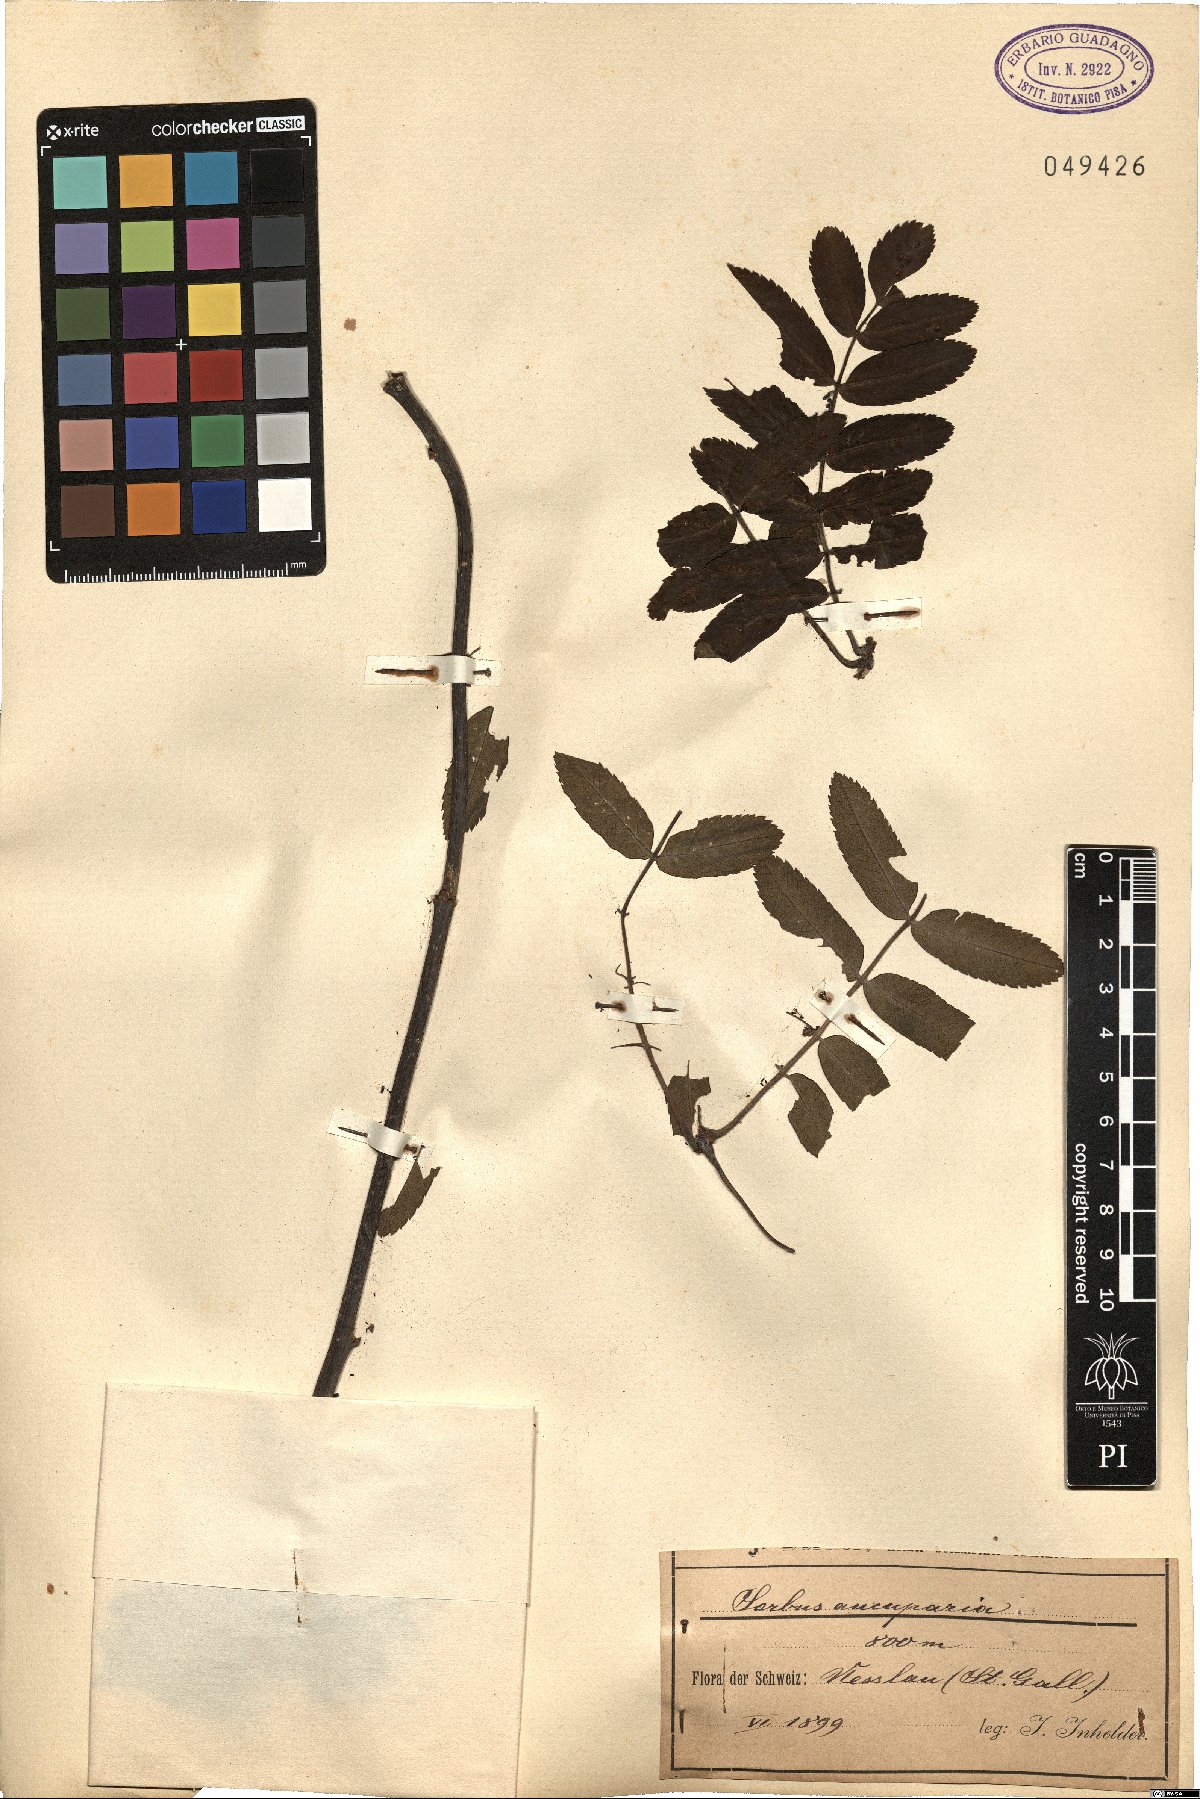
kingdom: Plantae
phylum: Tracheophyta
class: Magnoliopsida
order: Rosales
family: Rosaceae
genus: Sorbus
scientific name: Sorbus aucuparia
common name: Rowan
